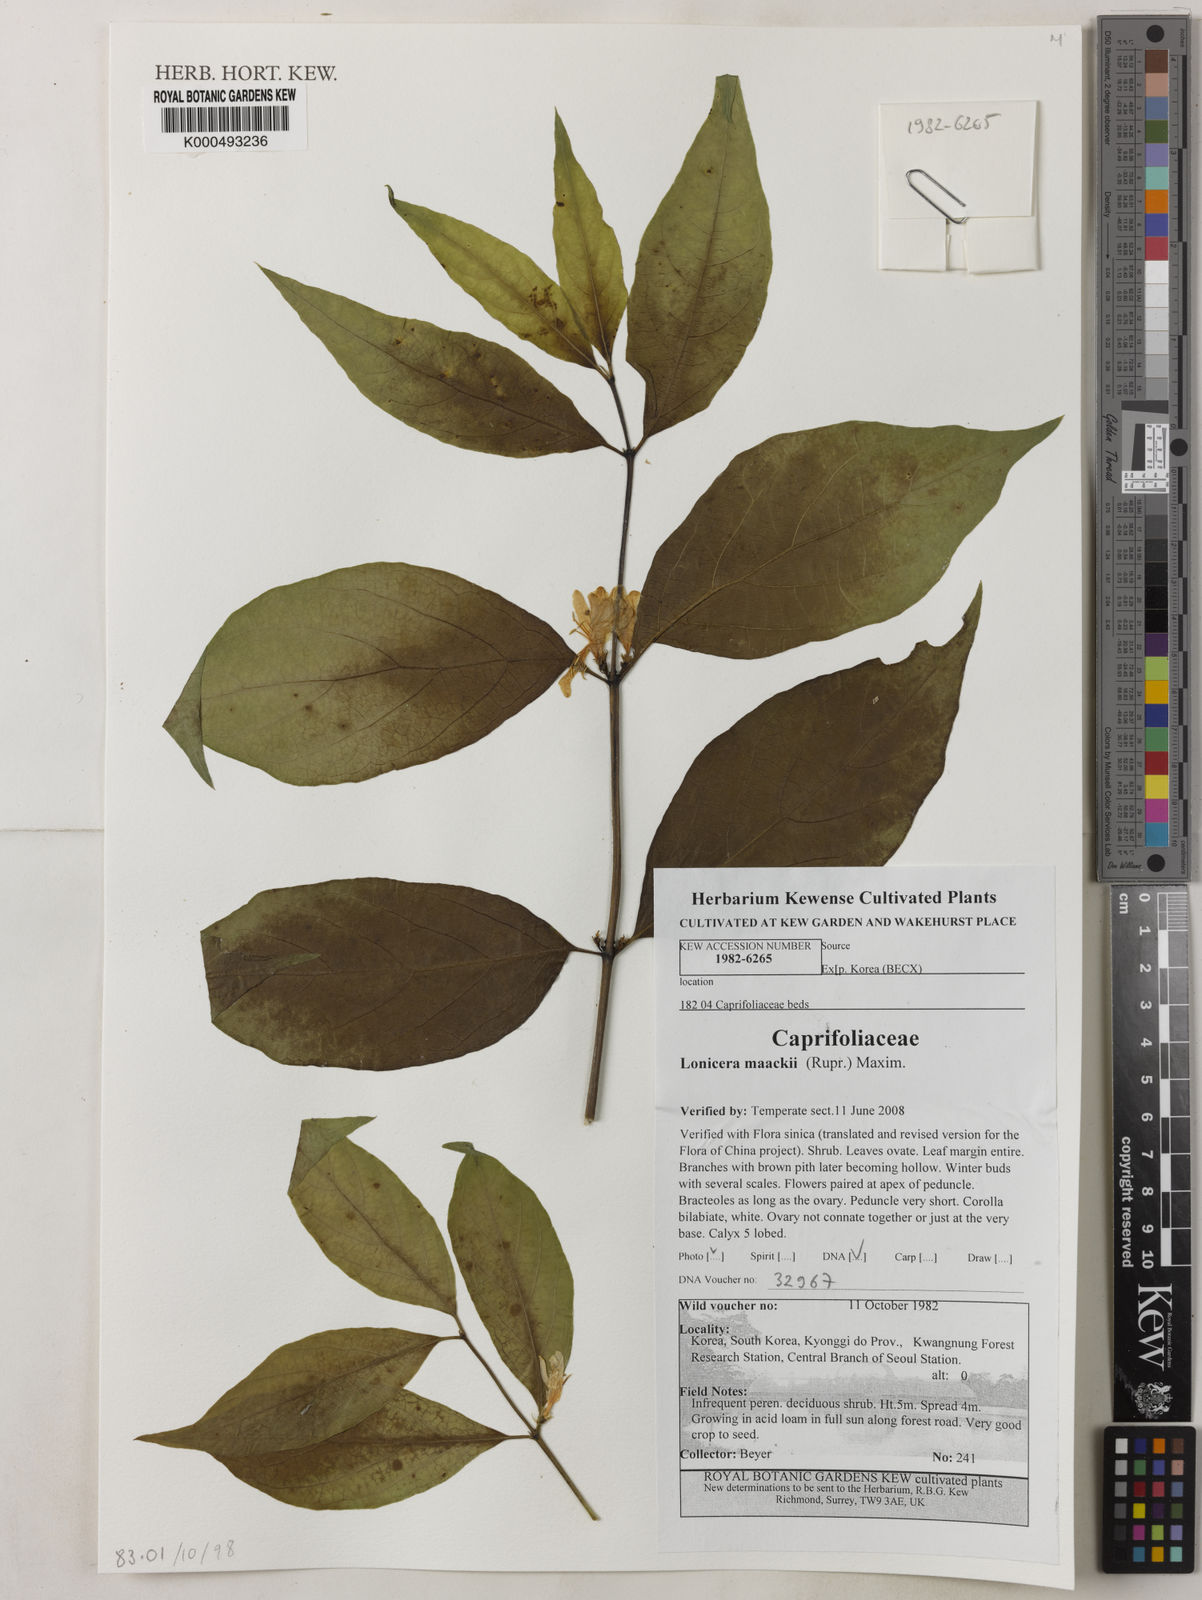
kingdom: Plantae
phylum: Tracheophyta
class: Magnoliopsida
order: Dipsacales
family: Caprifoliaceae
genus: Lonicera
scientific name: Lonicera maackii
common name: Amur honeysuckle
